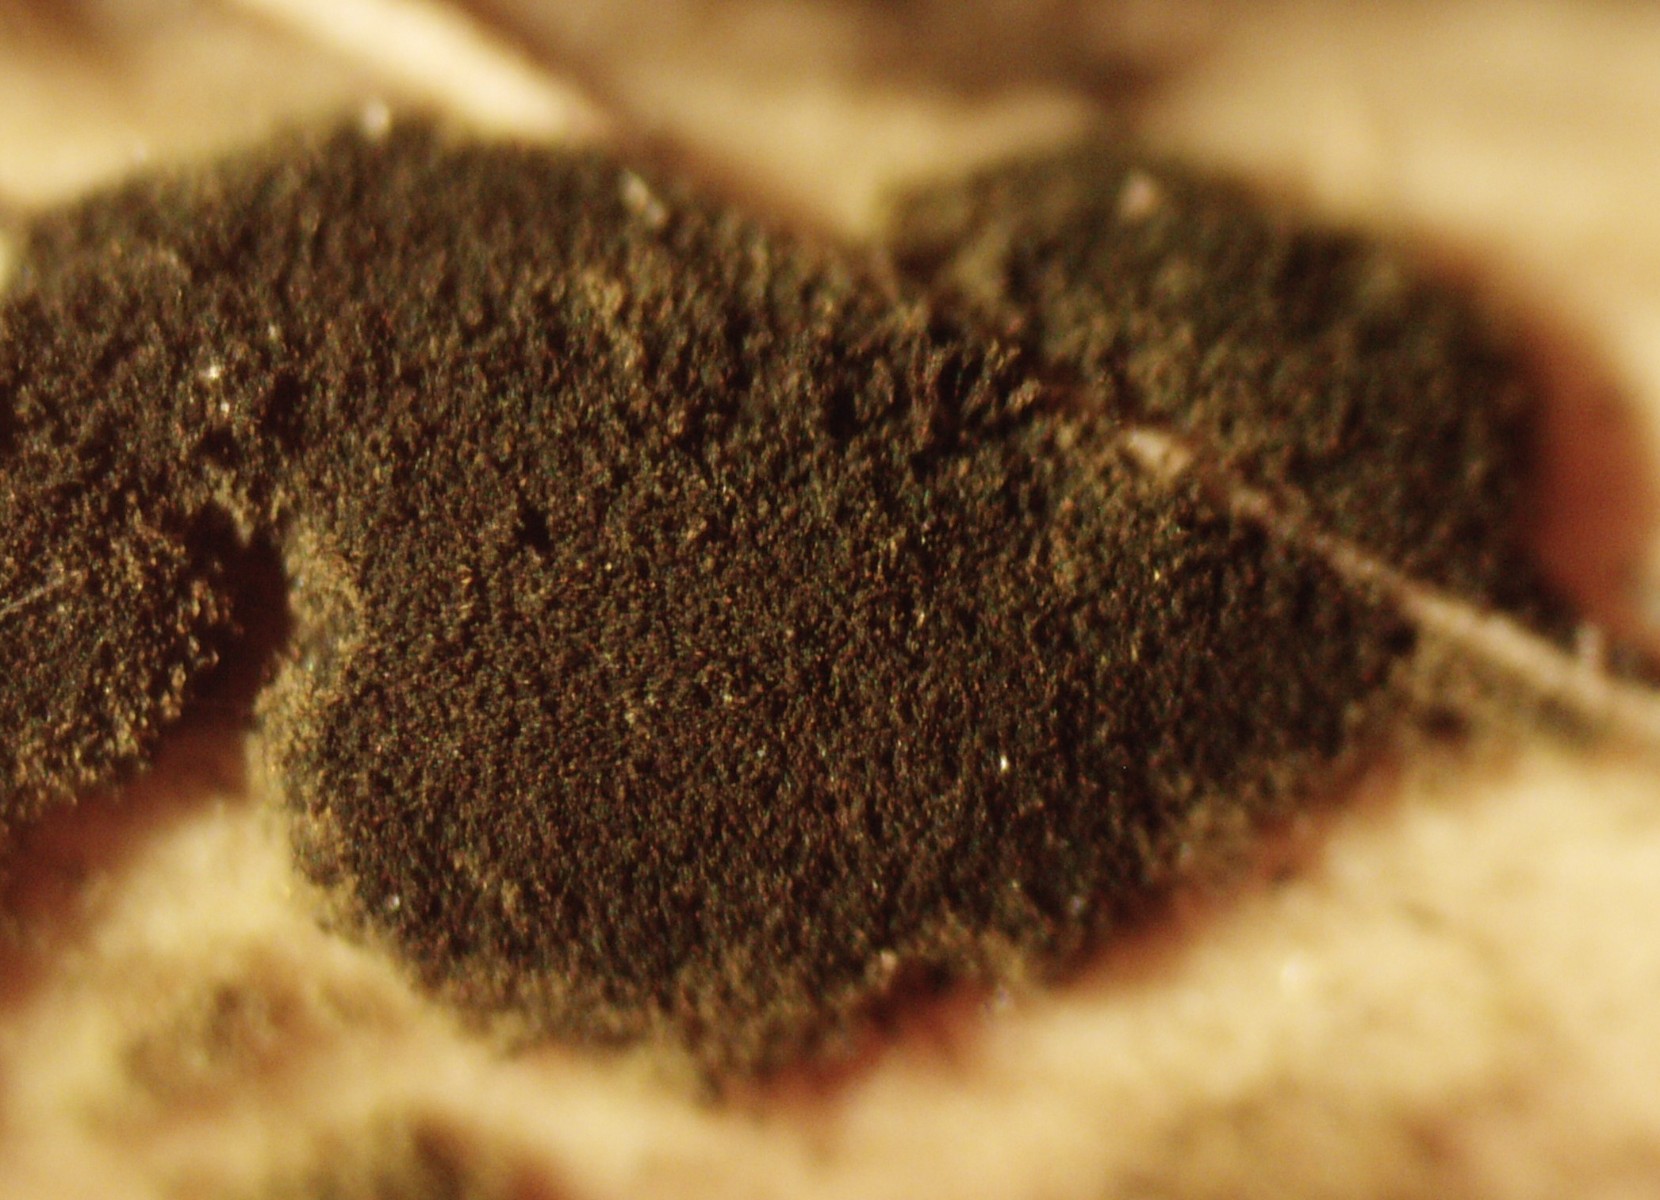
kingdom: Fungi
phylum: Ascomycota
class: Dothideomycetes
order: Pleosporales
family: Torulaceae
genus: Torula
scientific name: Torula herbarum
